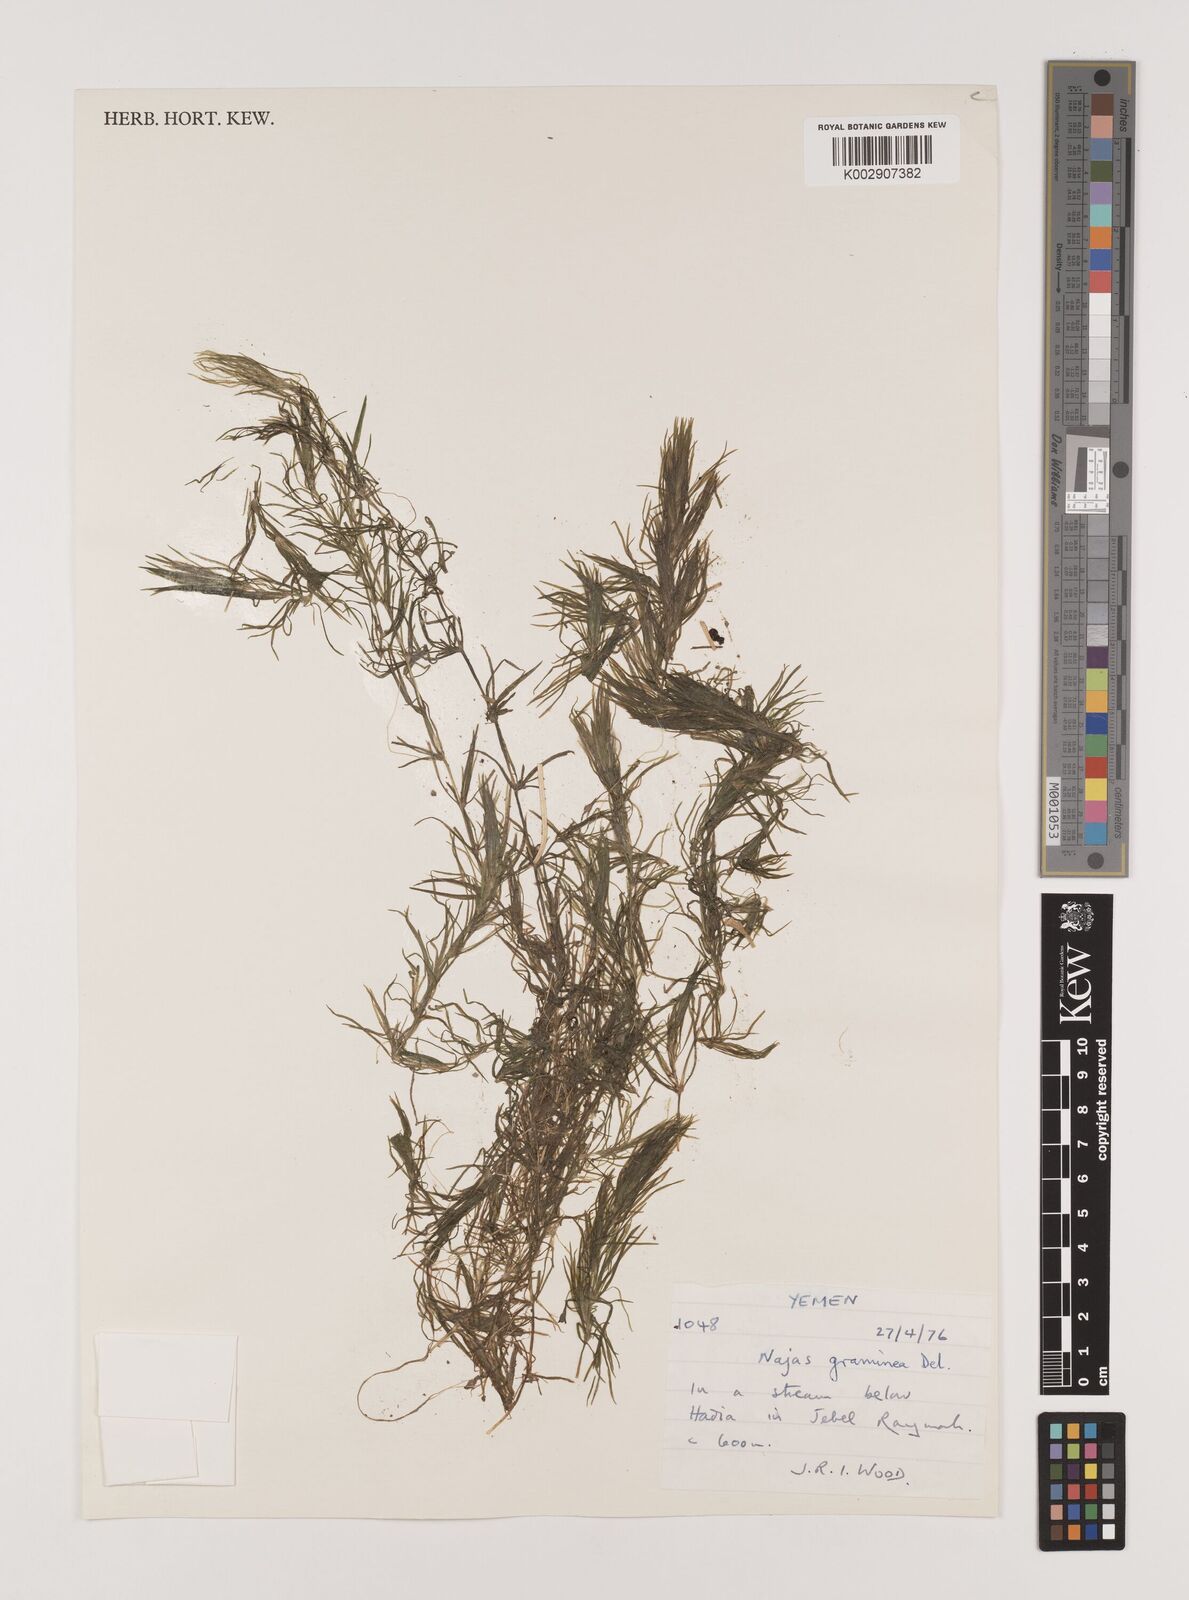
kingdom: Plantae
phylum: Tracheophyta
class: Liliopsida
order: Alismatales
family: Hydrocharitaceae
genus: Najas
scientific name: Najas graminea
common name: Ricefield waternymph
